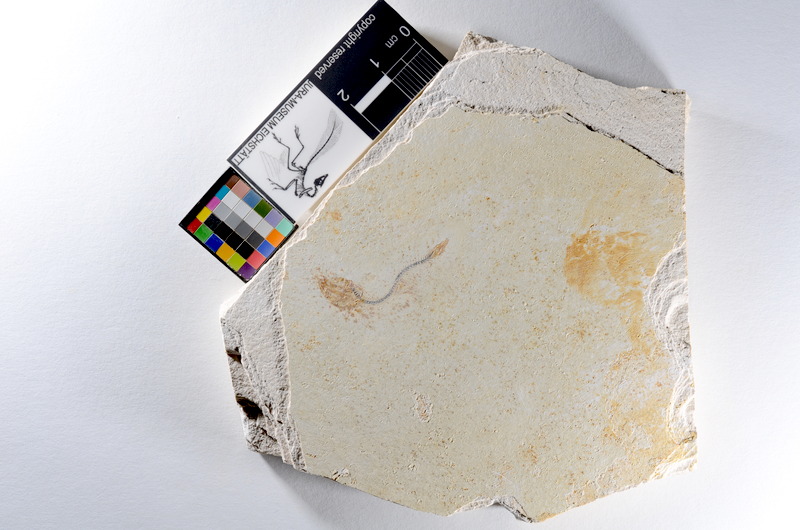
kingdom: Animalia
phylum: Chordata
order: Salmoniformes
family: Orthogonikleithridae
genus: Orthogonikleithrus
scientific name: Orthogonikleithrus hoelli
